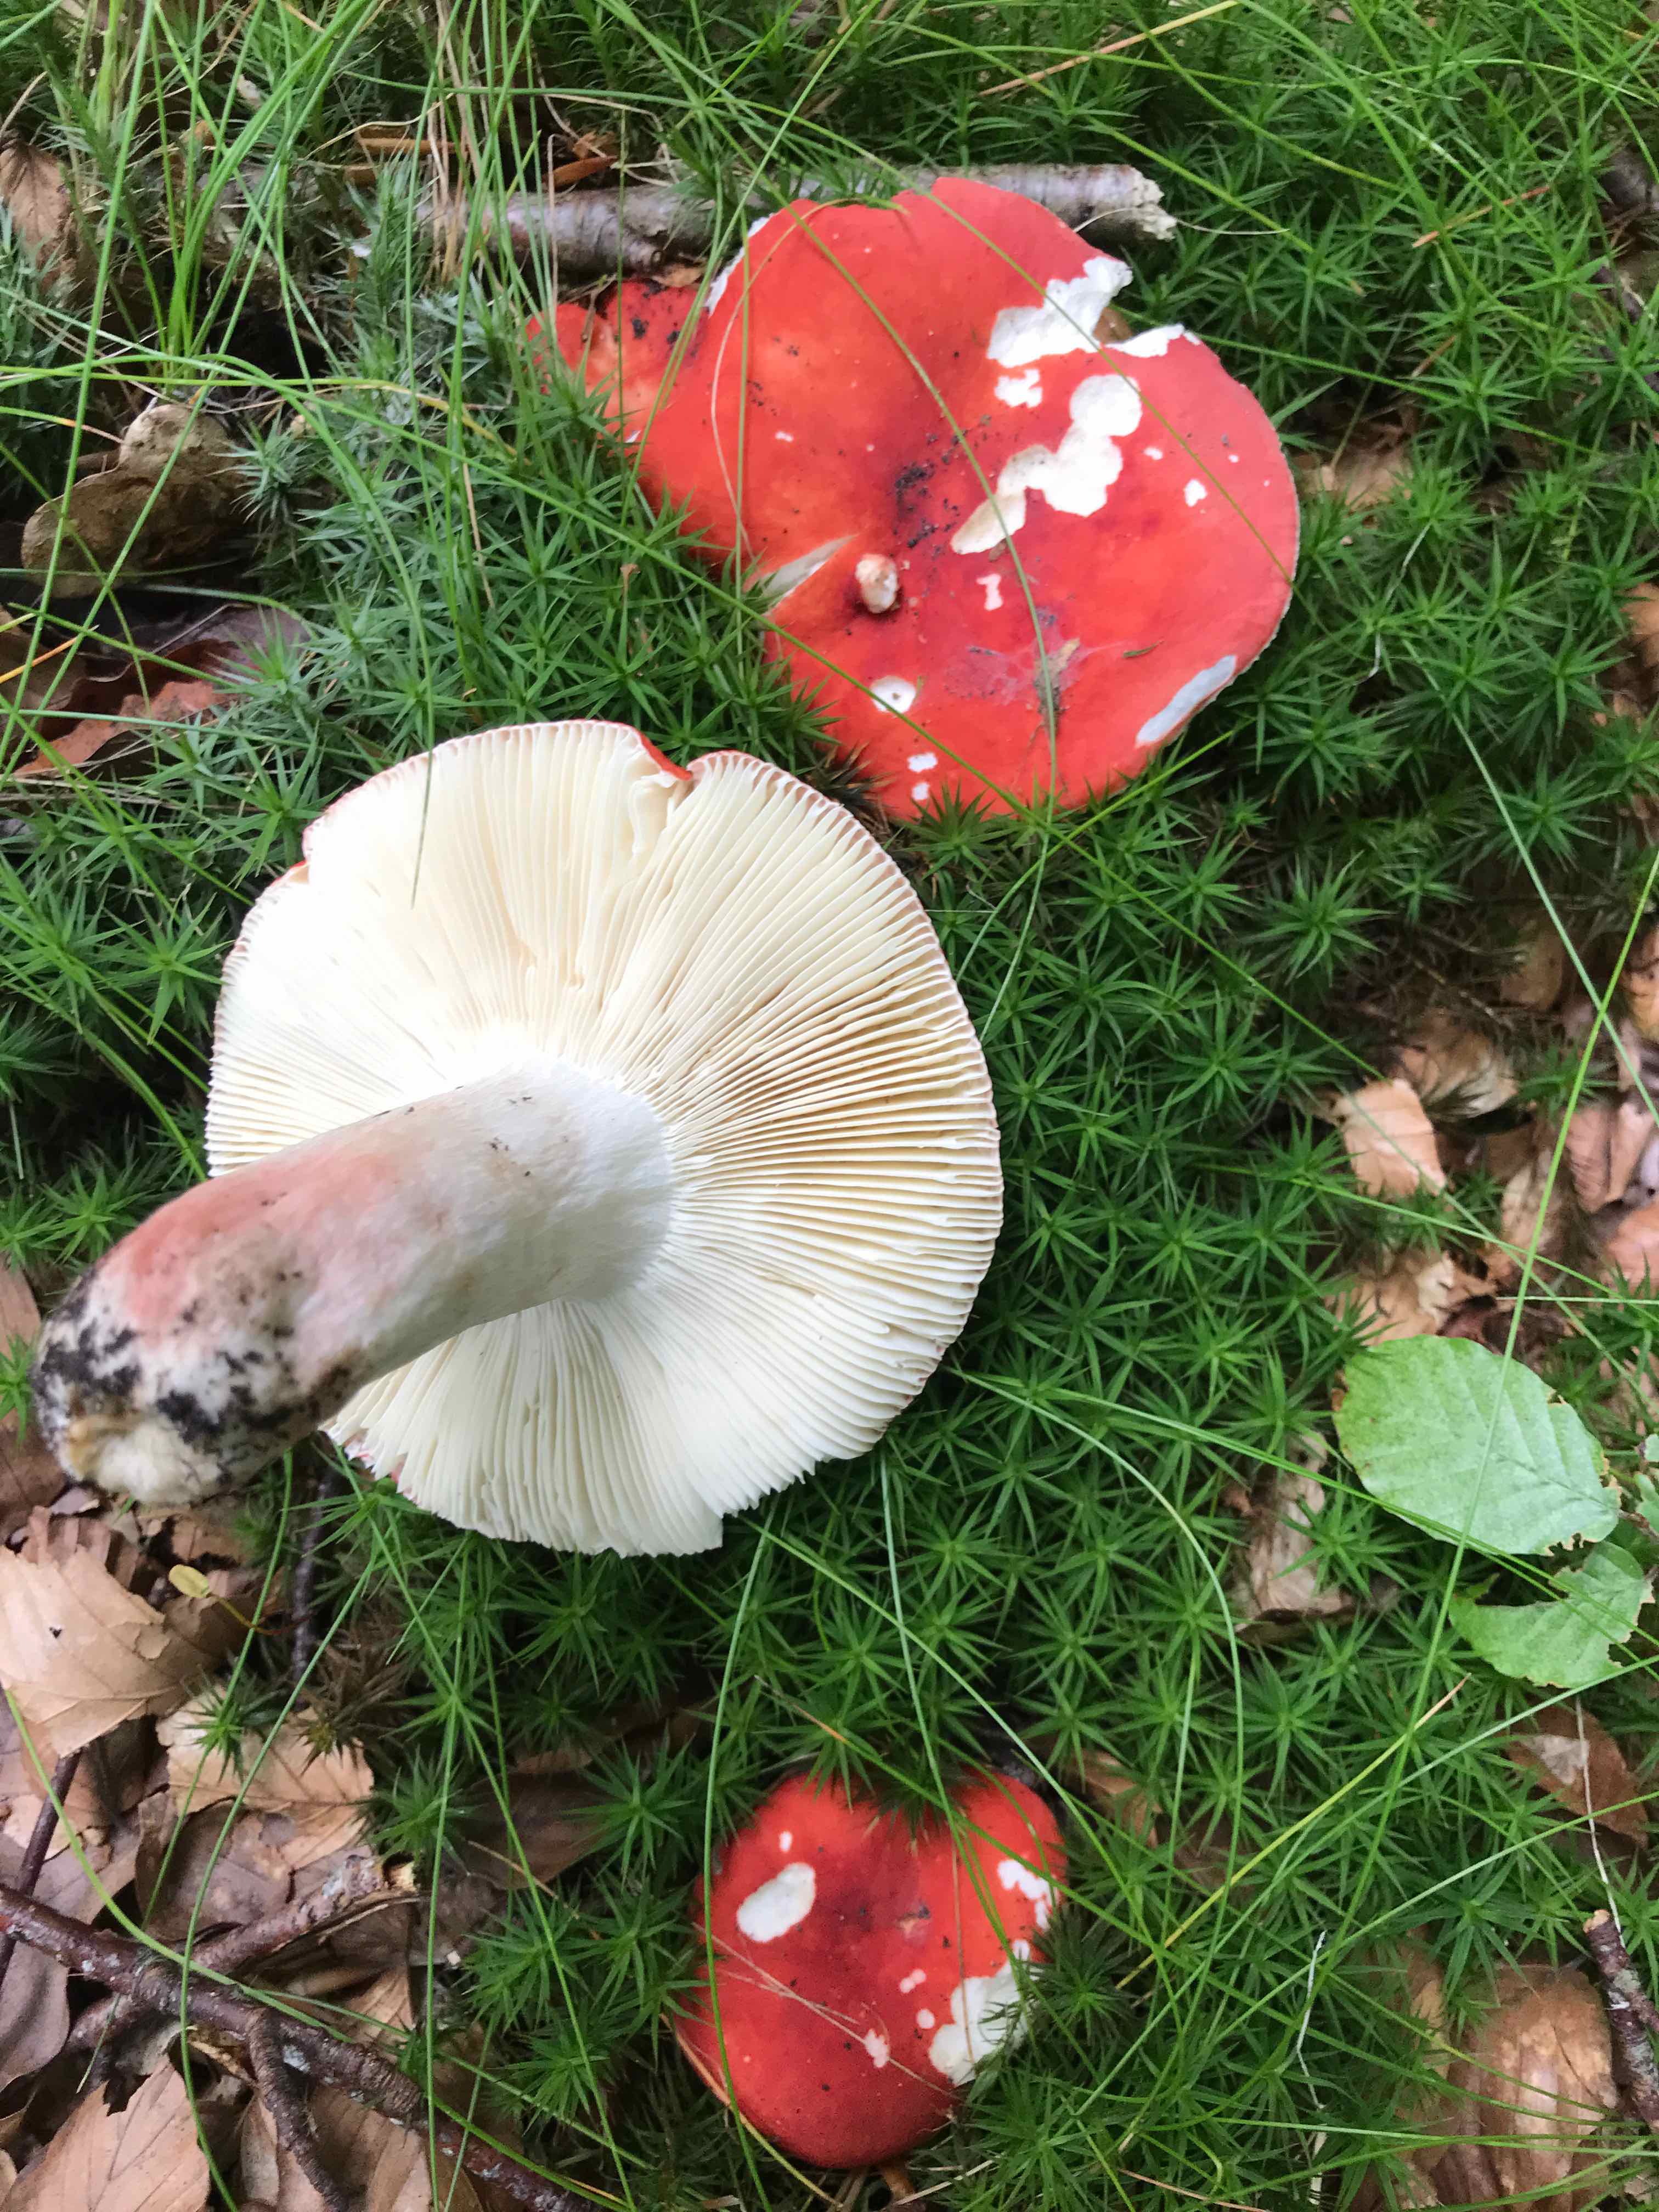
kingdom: Fungi
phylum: Basidiomycota
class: Agaricomycetes
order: Russulales
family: Russulaceae
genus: Russula
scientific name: Russula rosea
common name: fastkødet skørhat
